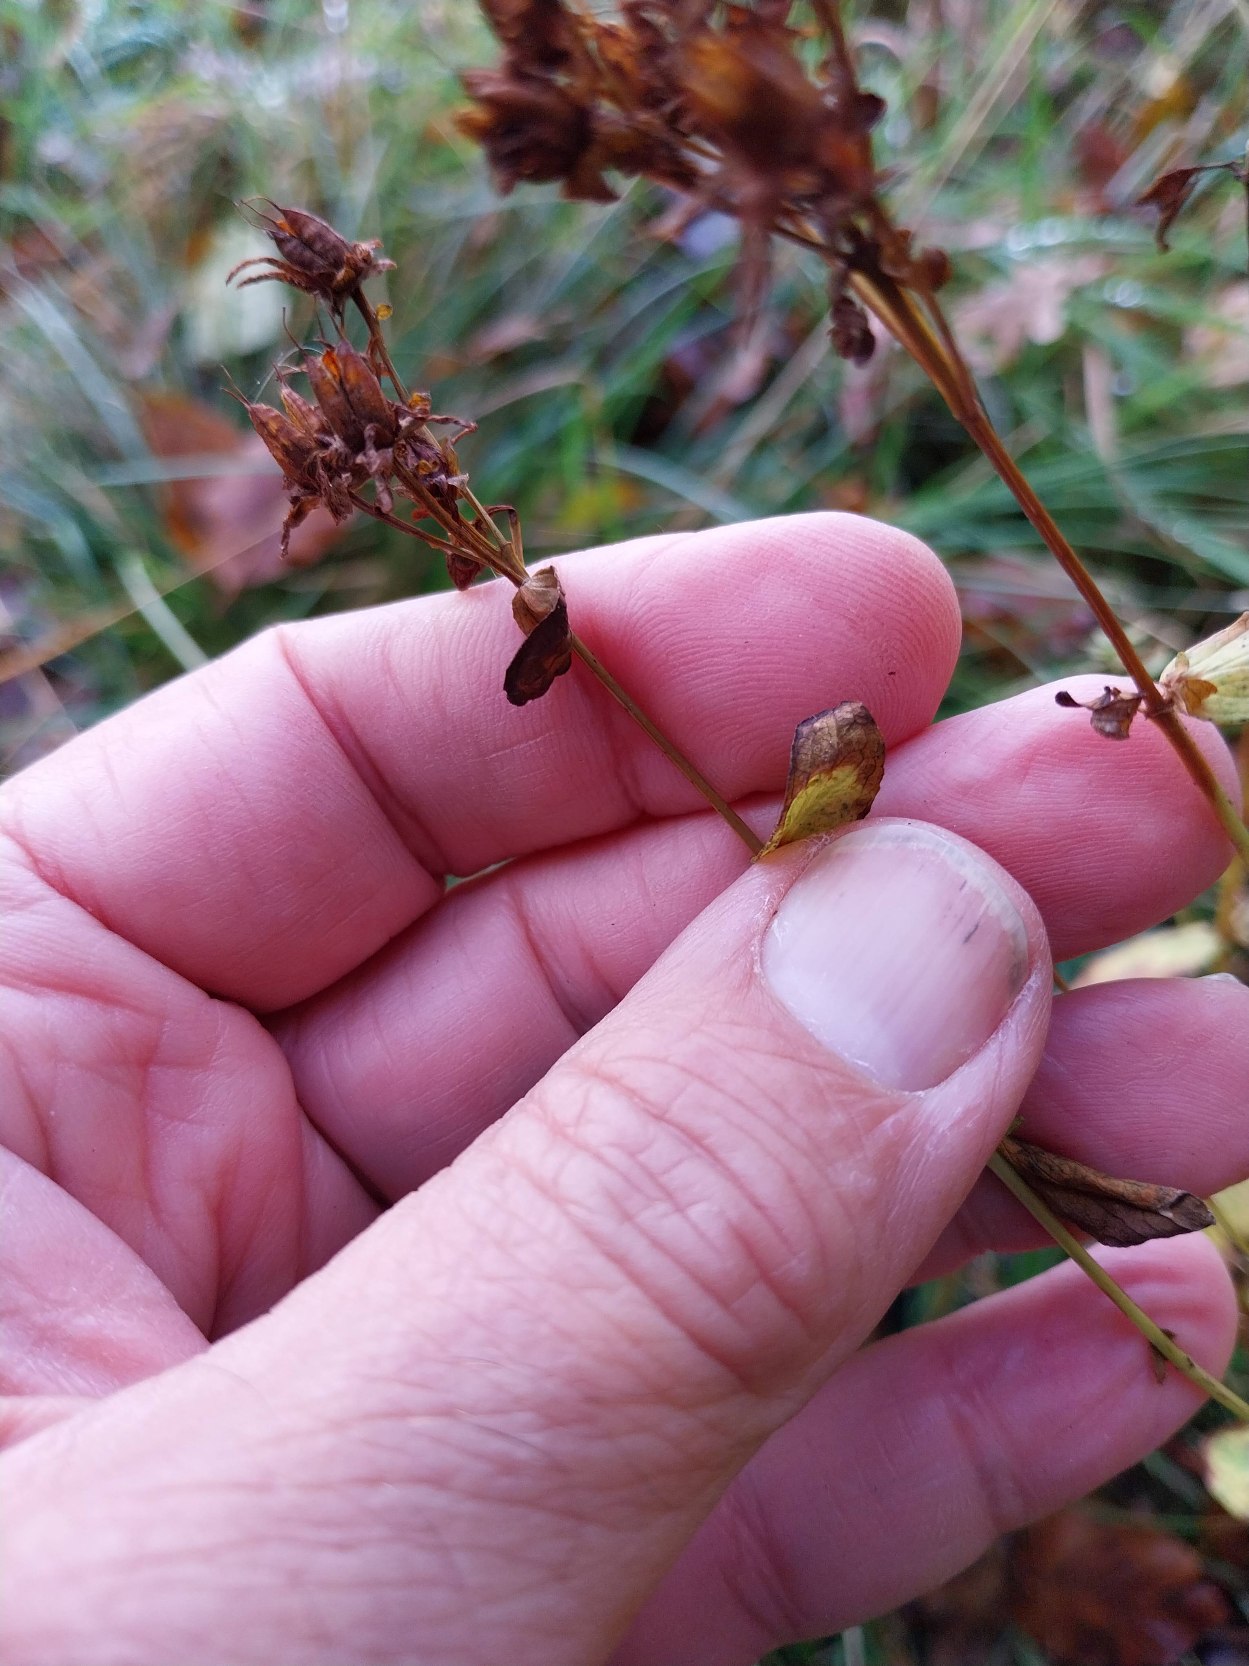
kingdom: Plantae
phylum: Tracheophyta
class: Magnoliopsida
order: Malpighiales
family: Hypericaceae
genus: Hypericum
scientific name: Hypericum perforatum
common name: Prikbladet perikon
